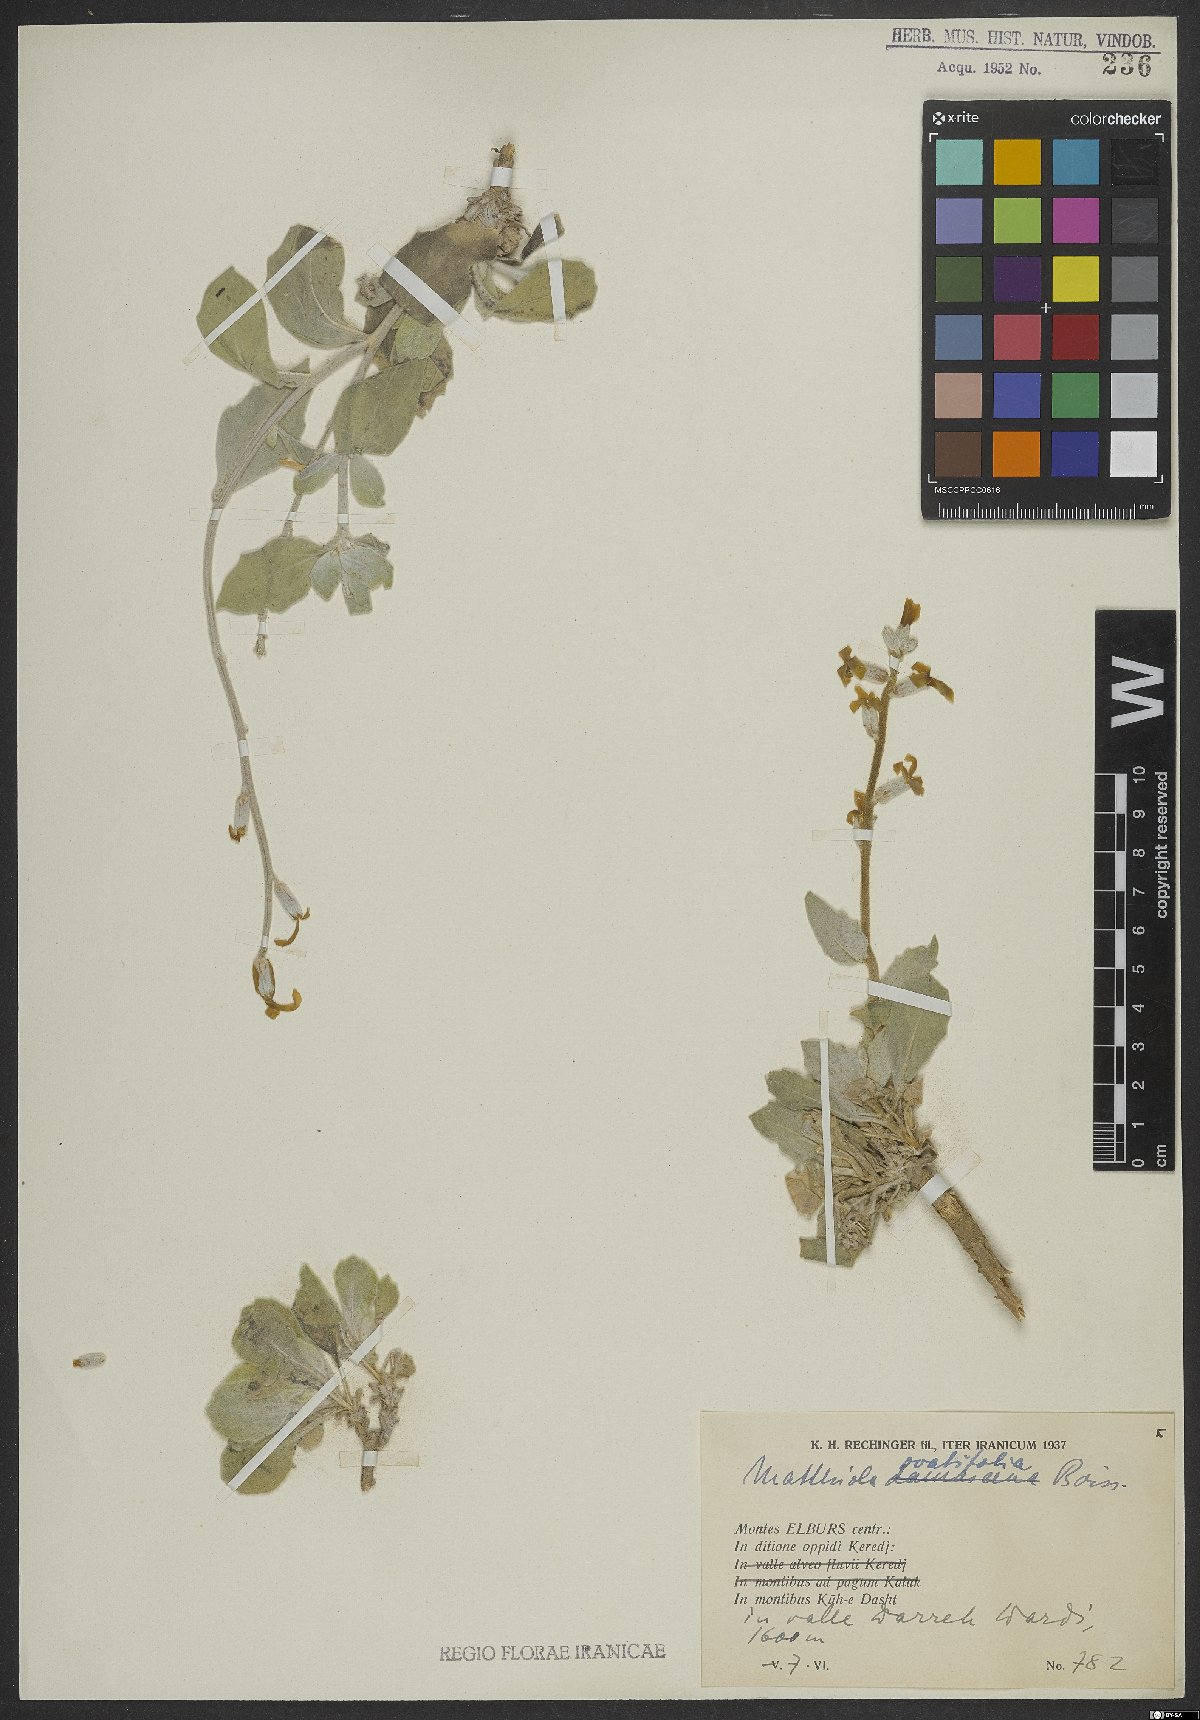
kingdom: Plantae
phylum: Tracheophyta
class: Magnoliopsida
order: Brassicales
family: Brassicaceae
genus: Matthiola
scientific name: Matthiola ovatifolia
